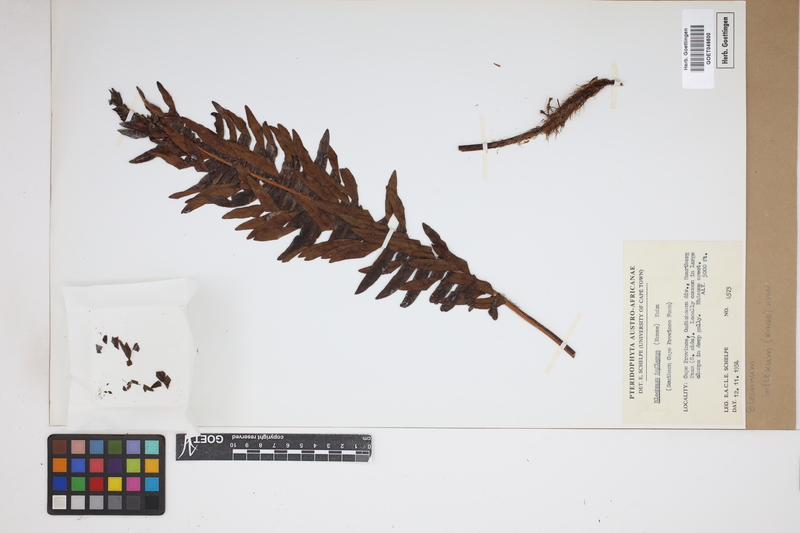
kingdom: Plantae
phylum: Tracheophyta
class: Polypodiopsida
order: Polypodiales
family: Blechnaceae
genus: Lomaria
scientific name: Lomaria inflexa
